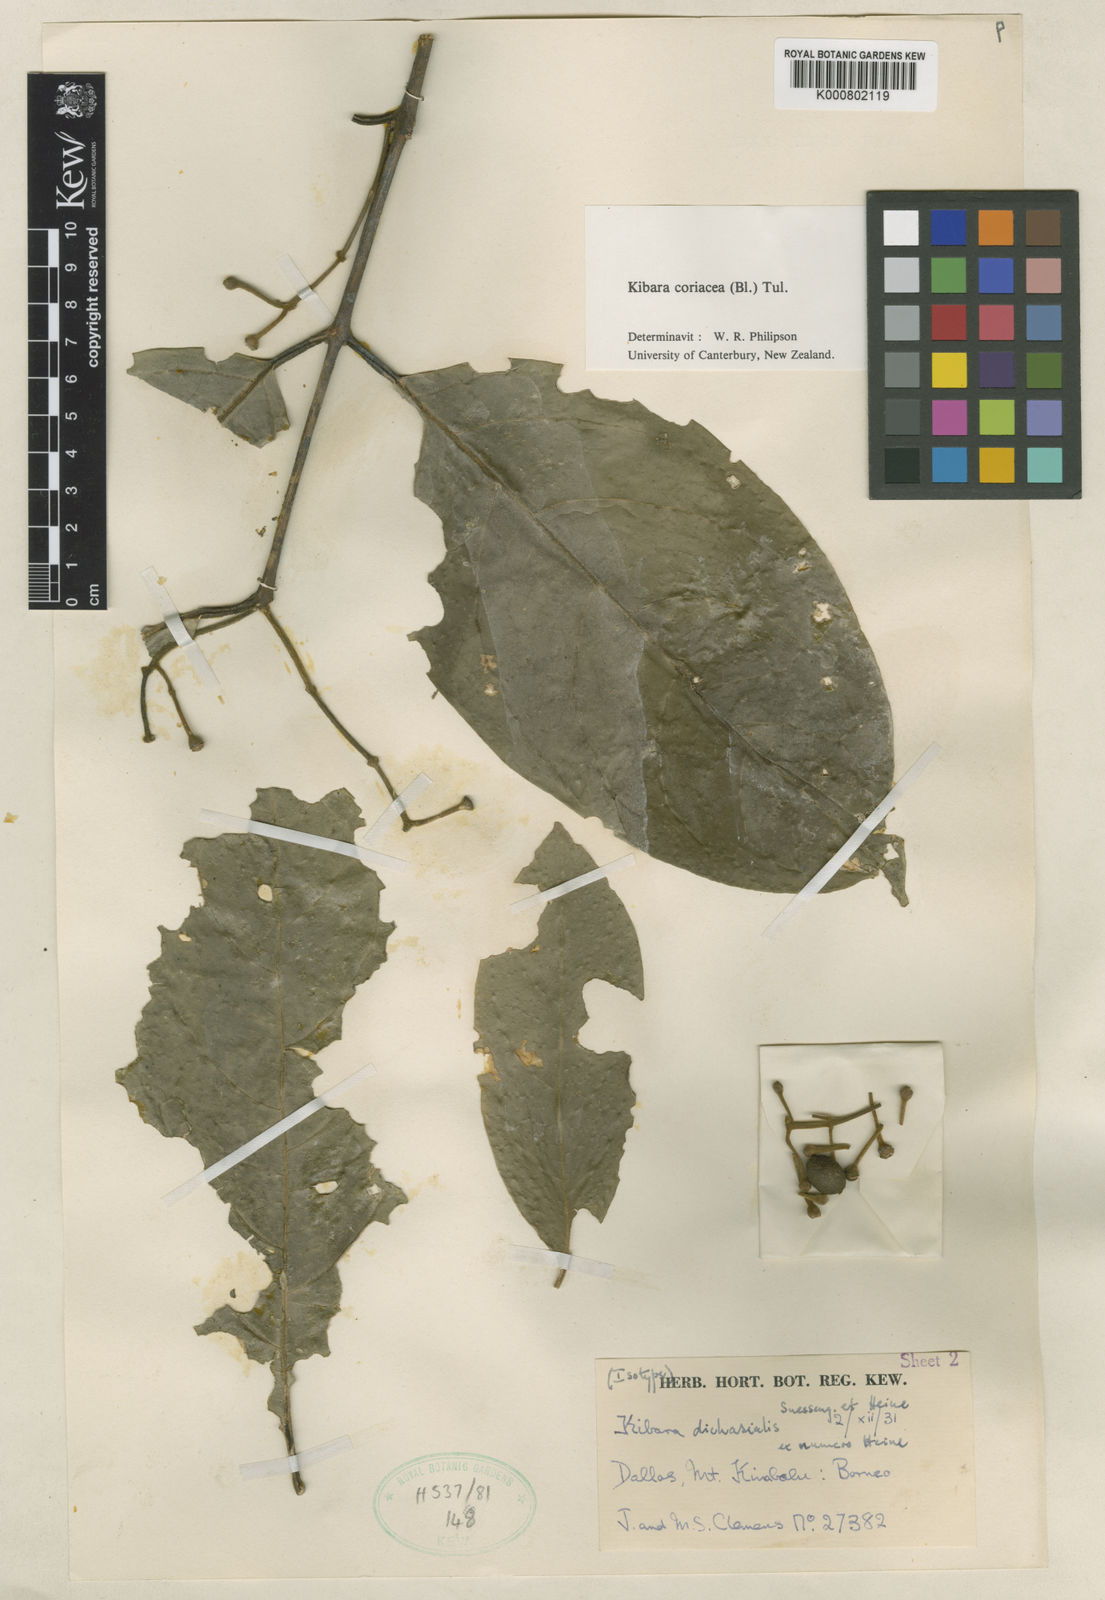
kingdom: Plantae
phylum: Tracheophyta
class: Magnoliopsida
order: Laurales
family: Monimiaceae
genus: Kibara
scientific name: Kibara coriacea
